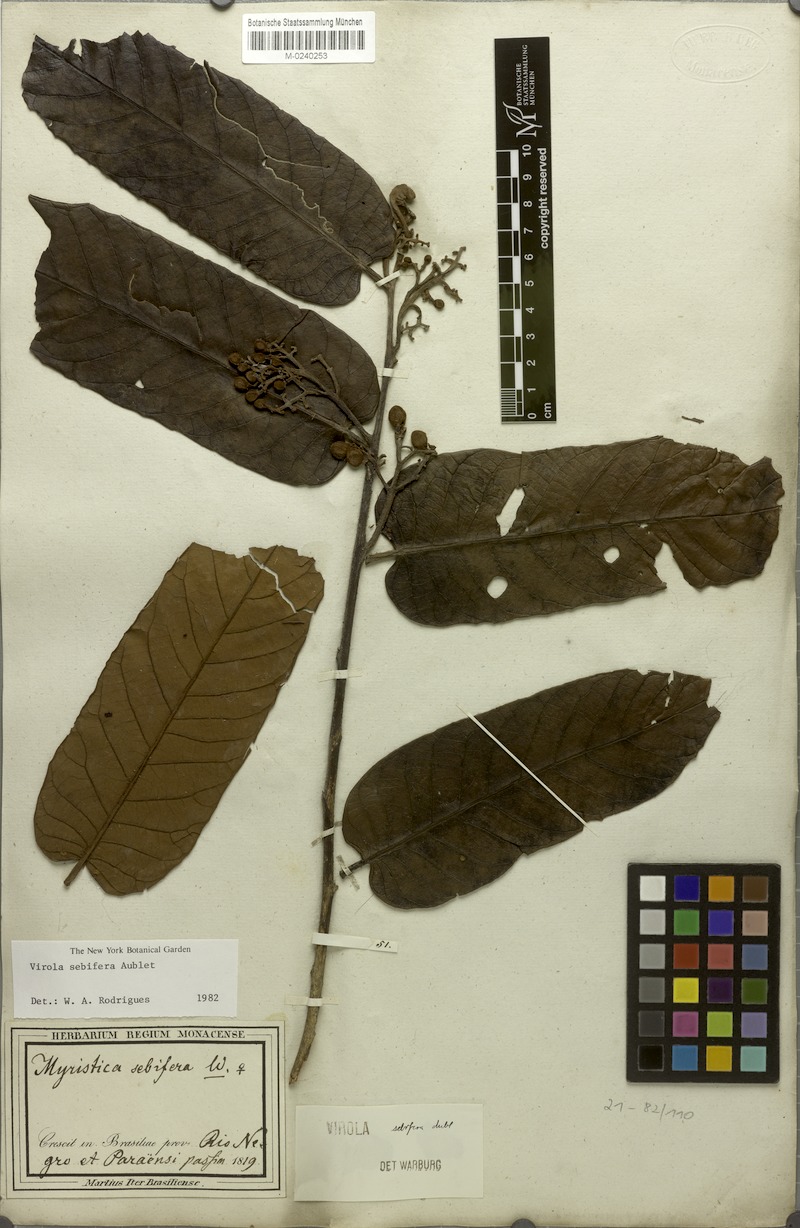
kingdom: Plantae
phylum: Tracheophyta
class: Magnoliopsida
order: Magnoliales
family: Myristicaceae
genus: Virola
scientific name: Virola sebifera
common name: Red ucuuba
